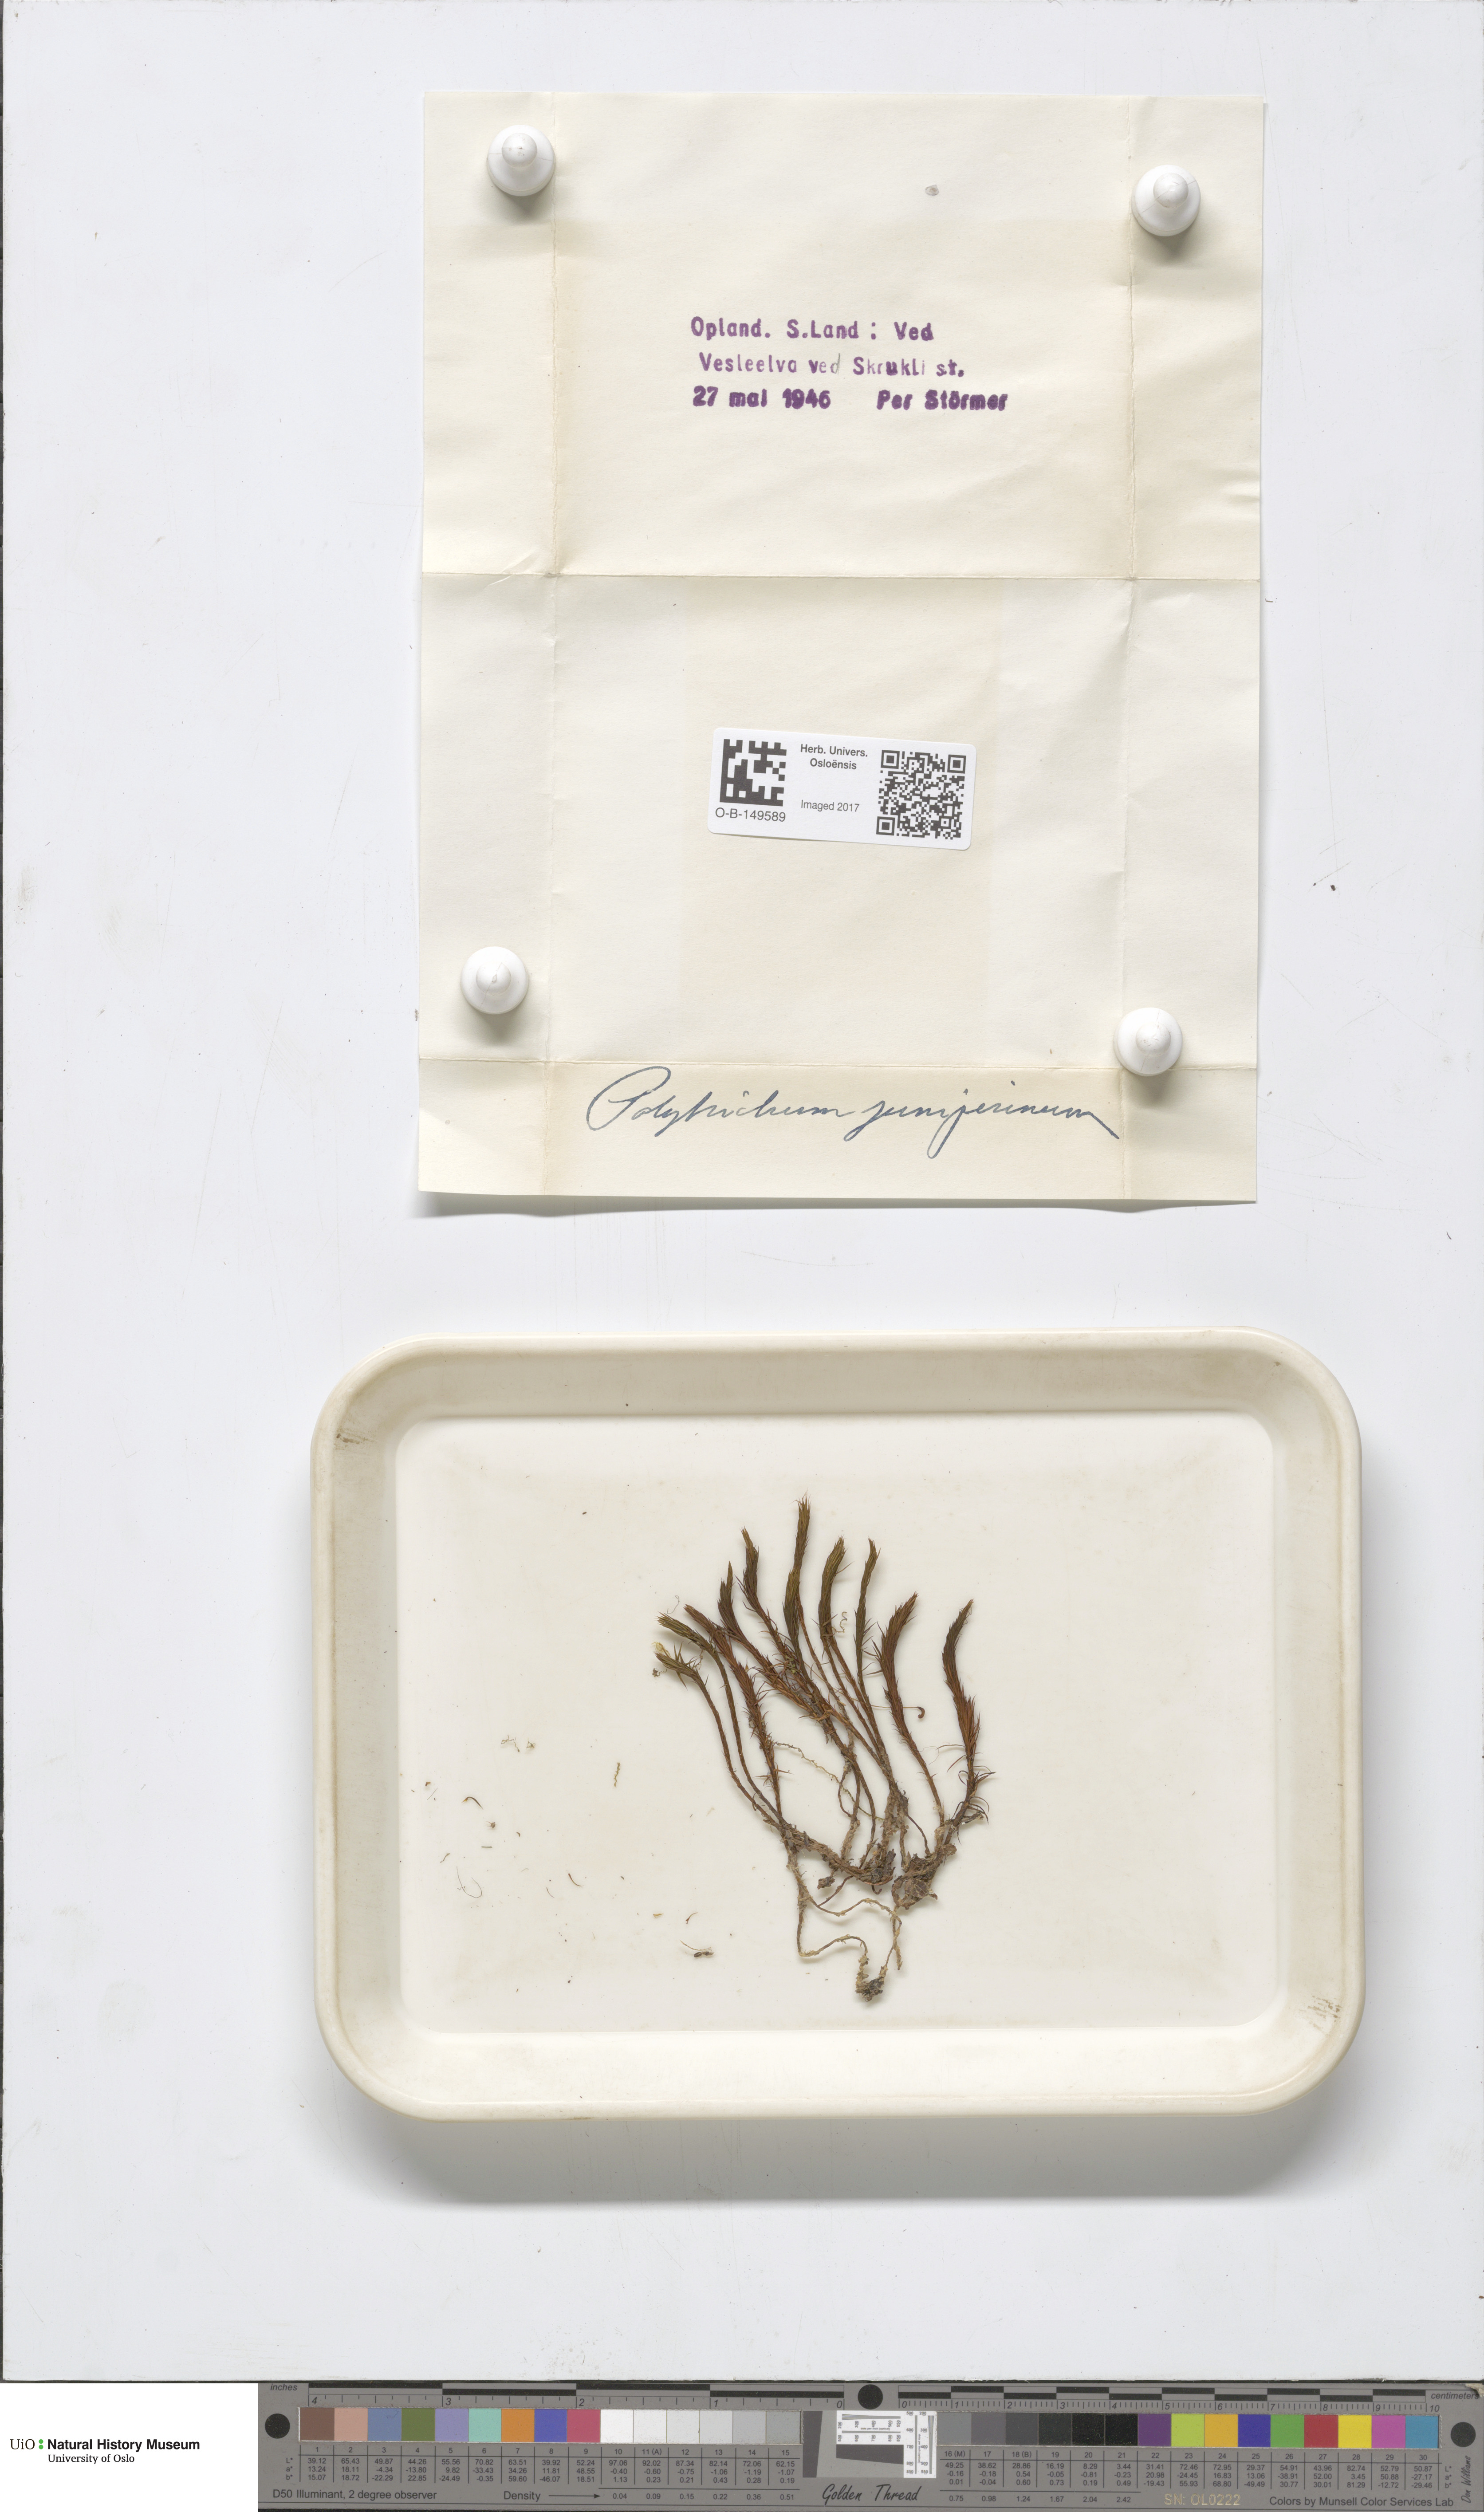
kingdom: Plantae
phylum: Bryophyta
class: Polytrichopsida
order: Polytrichales
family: Polytrichaceae
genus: Polytrichum
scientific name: Polytrichum juniperinum
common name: Juniper haircap moss
